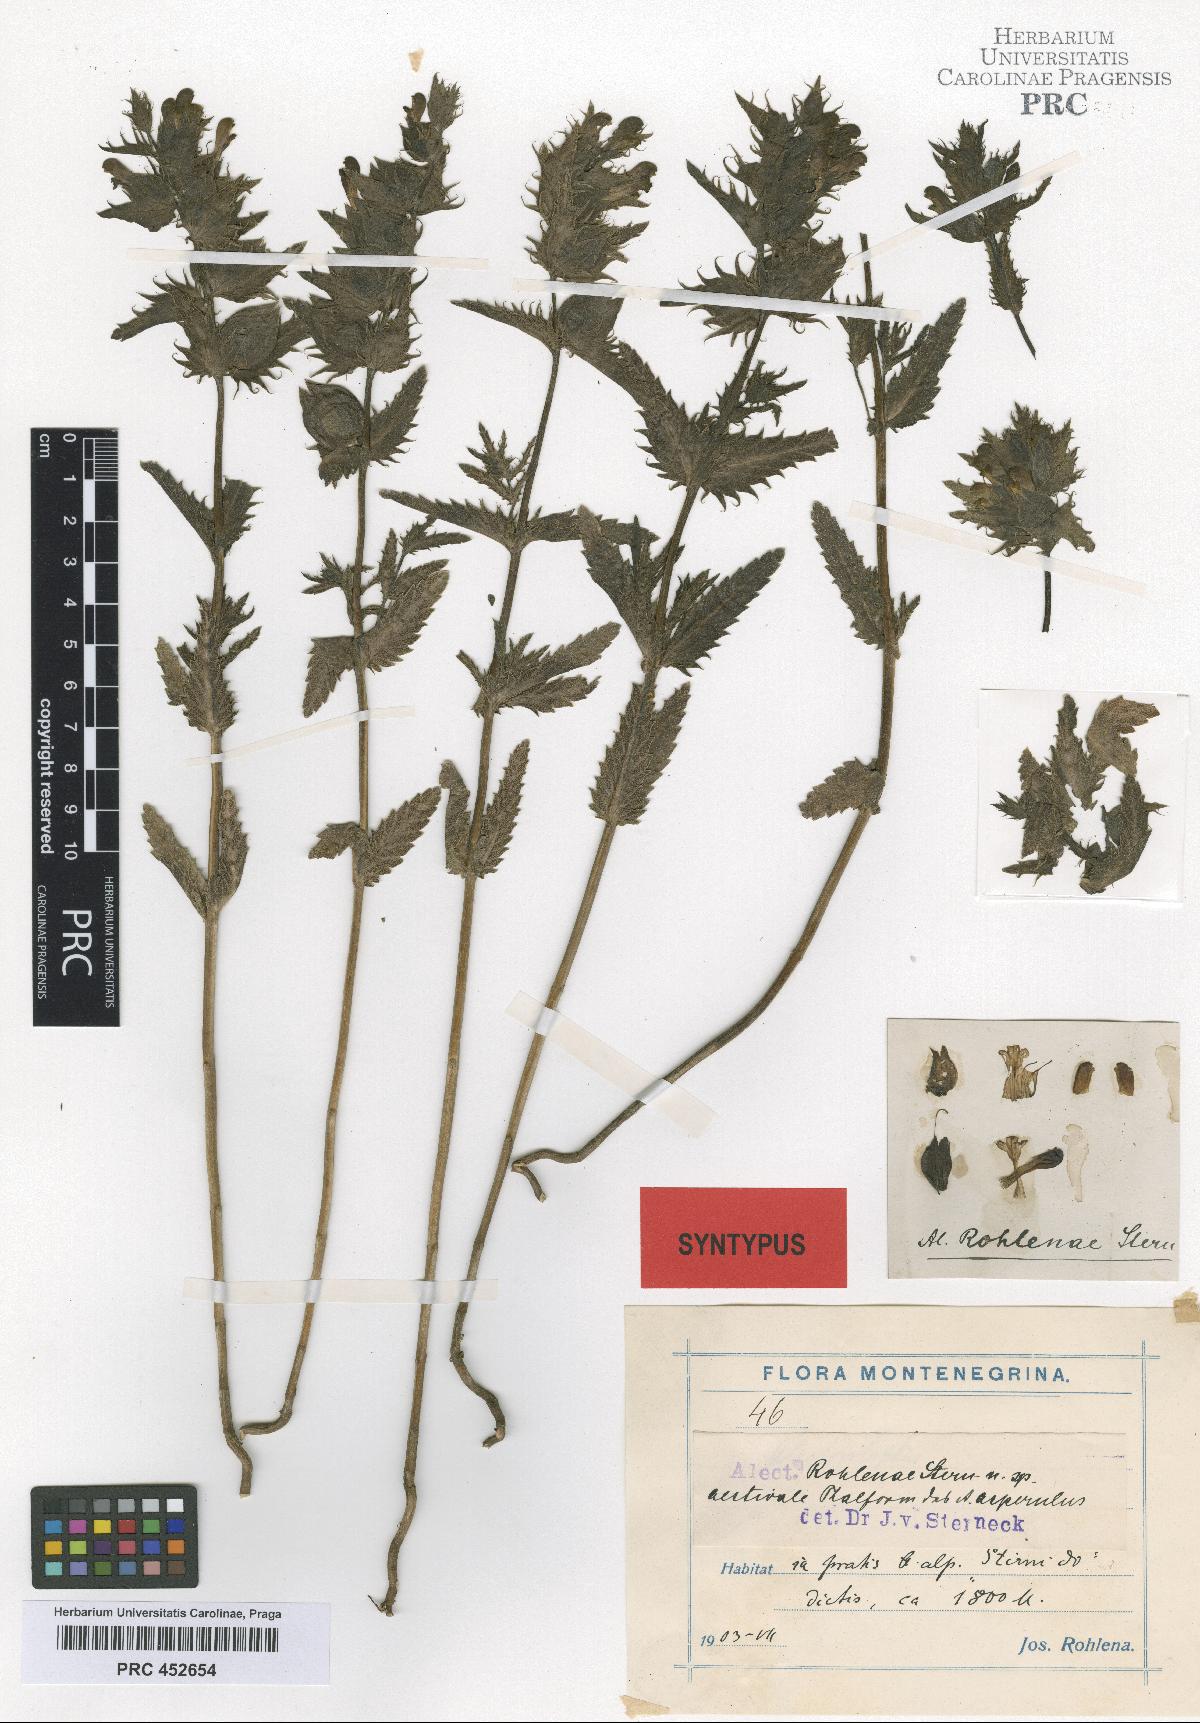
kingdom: Plantae
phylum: Tracheophyta
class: Magnoliopsida
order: Lamiales
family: Scrophulariaceae
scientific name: Scrophulariaceae
